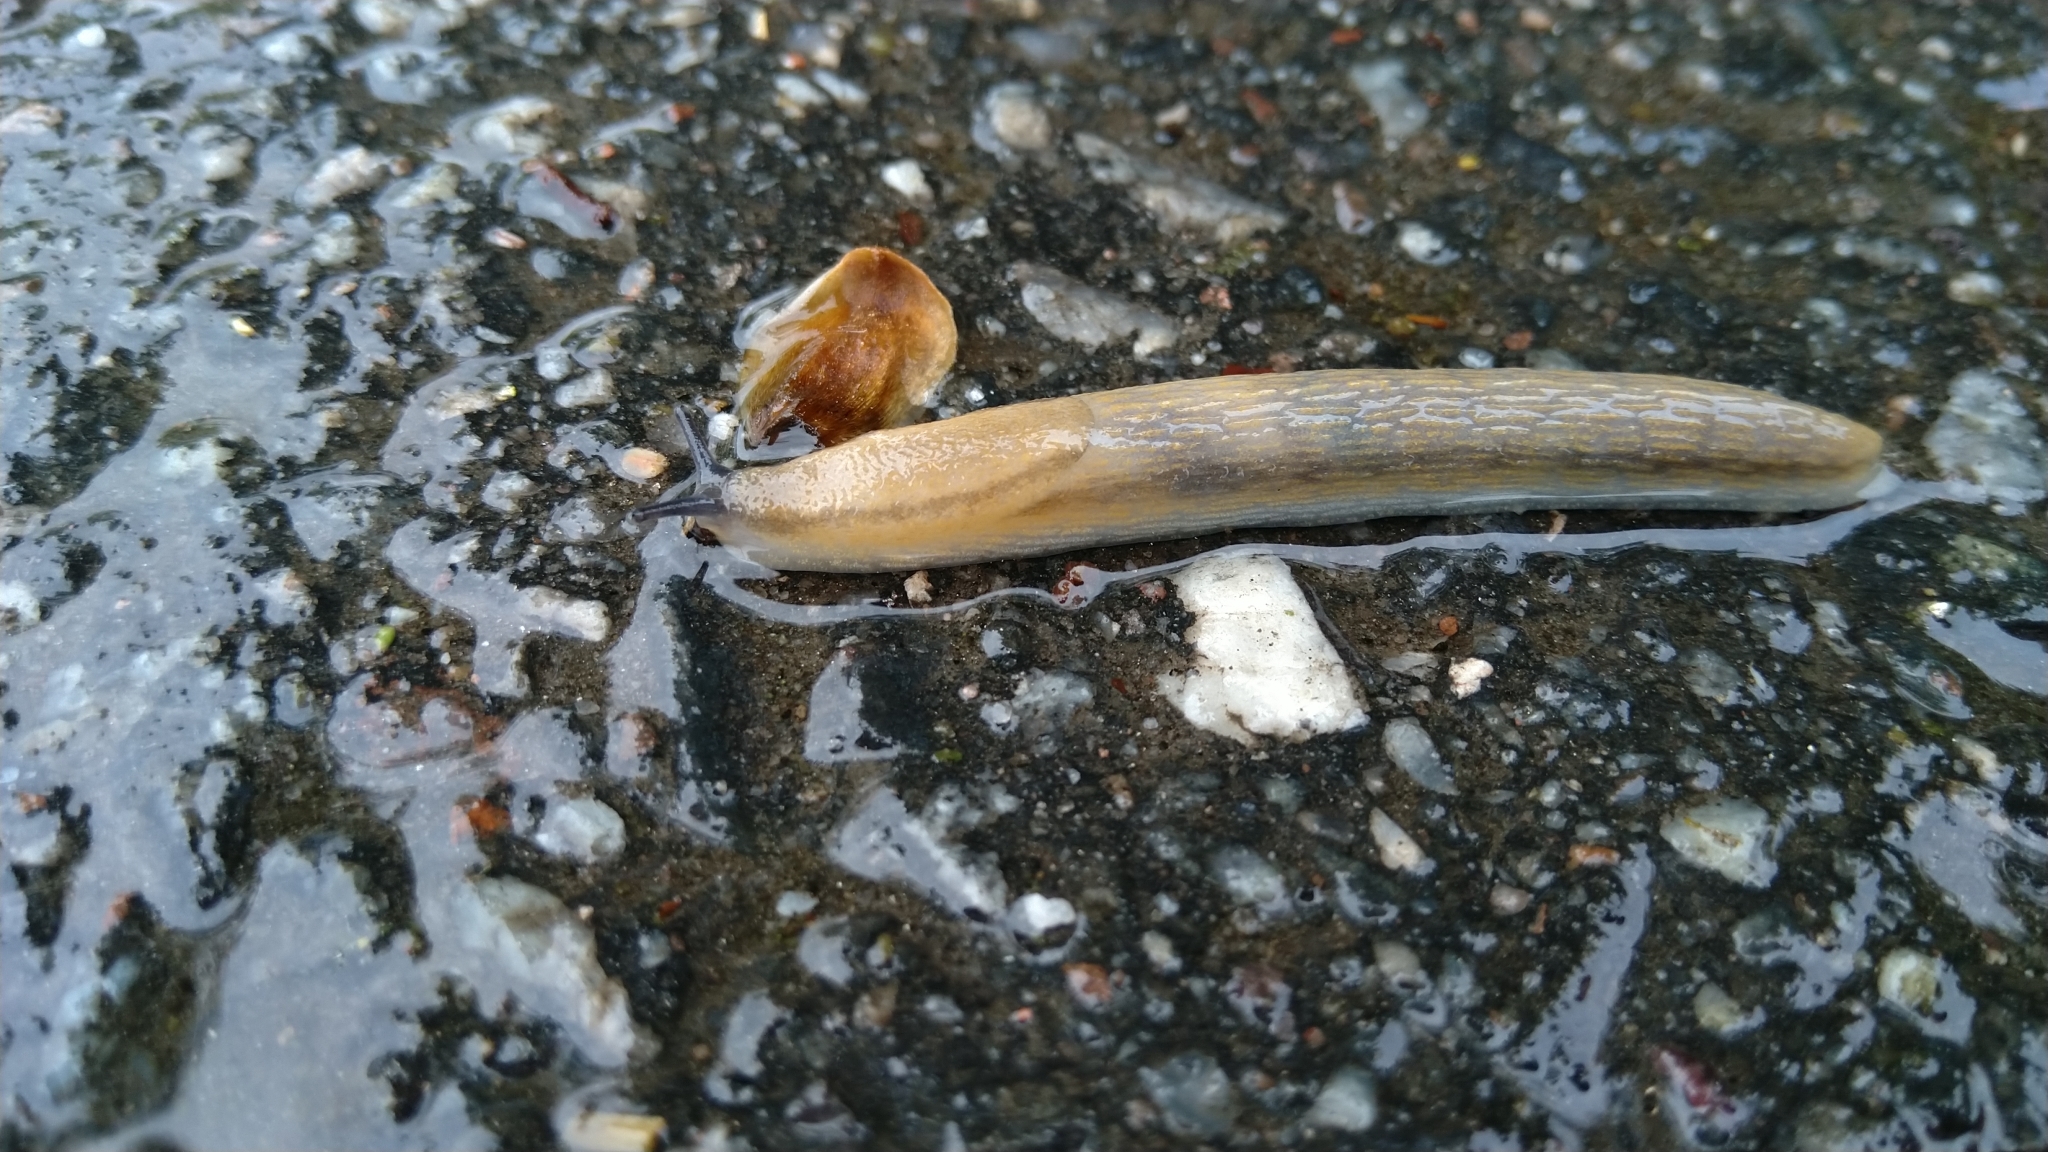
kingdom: Animalia
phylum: Mollusca
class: Gastropoda
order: Stylommatophora
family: Arionidae
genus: Arion
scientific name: Arion fuscus
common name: Northern dusky slug
